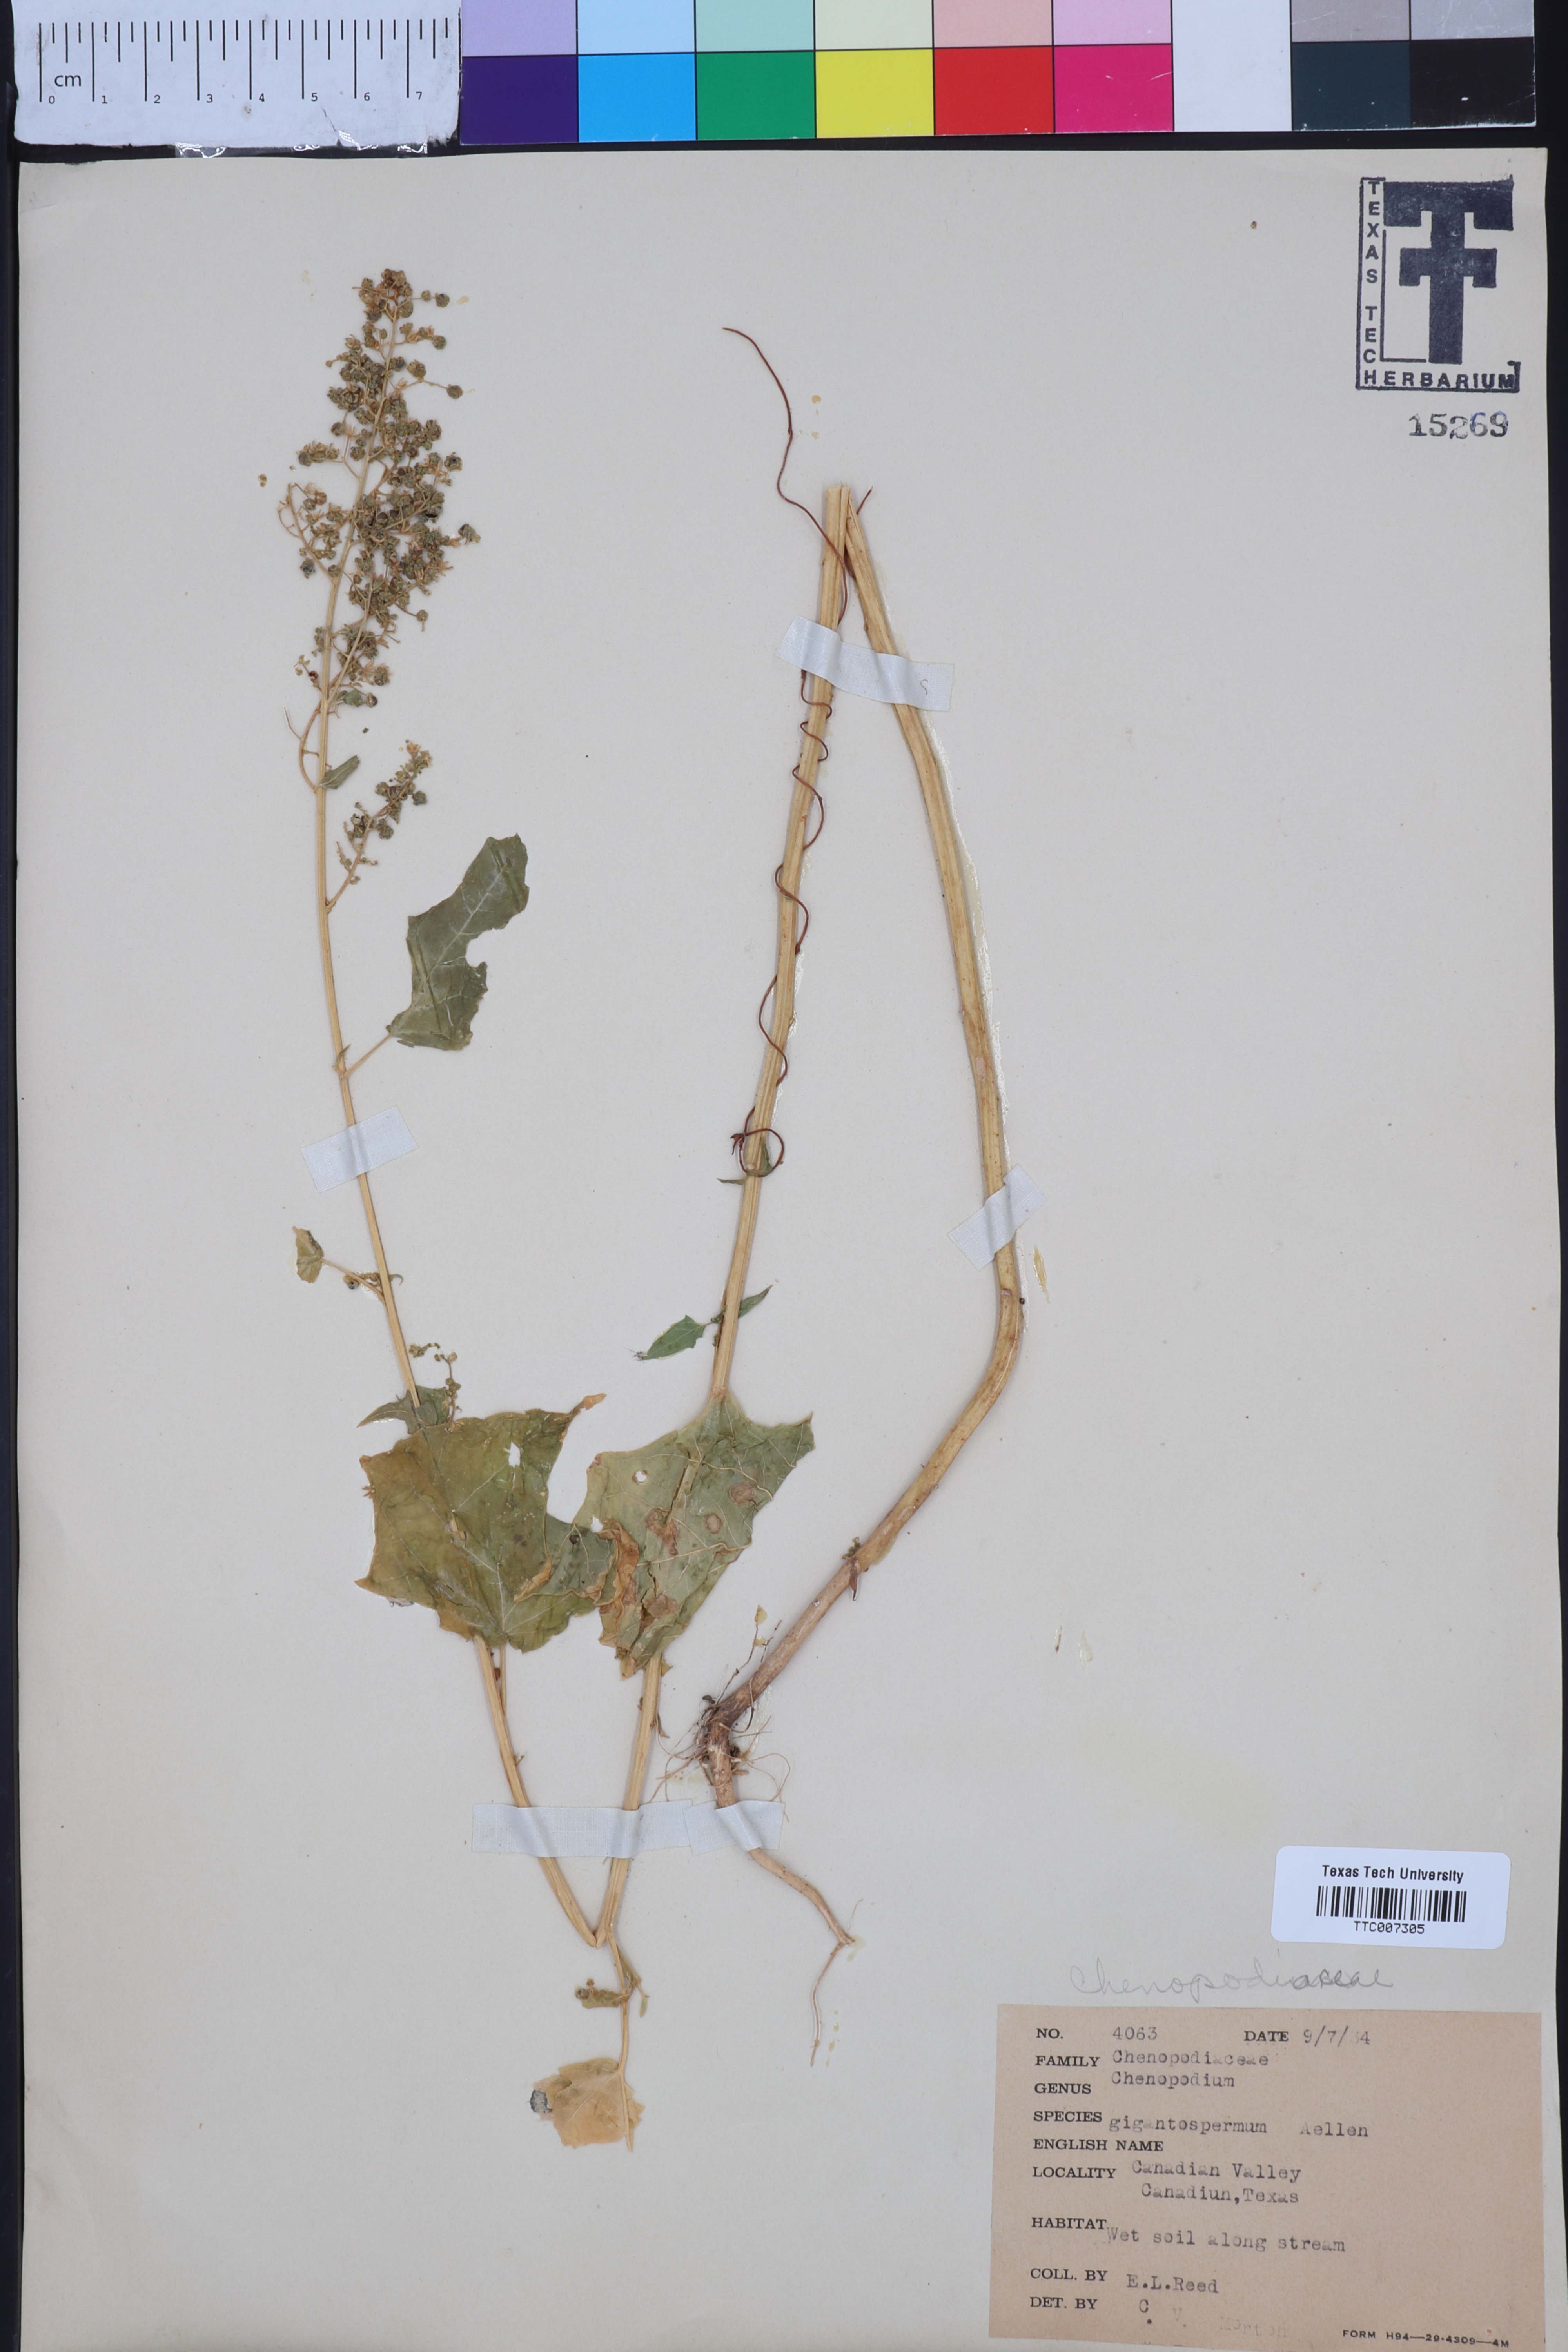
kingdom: Plantae
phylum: Tracheophyta
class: Magnoliopsida
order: Caryophyllales
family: Amaranthaceae
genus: Chenopodiastrum
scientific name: Chenopodiastrum simplex
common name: Large-seed goosefoot
